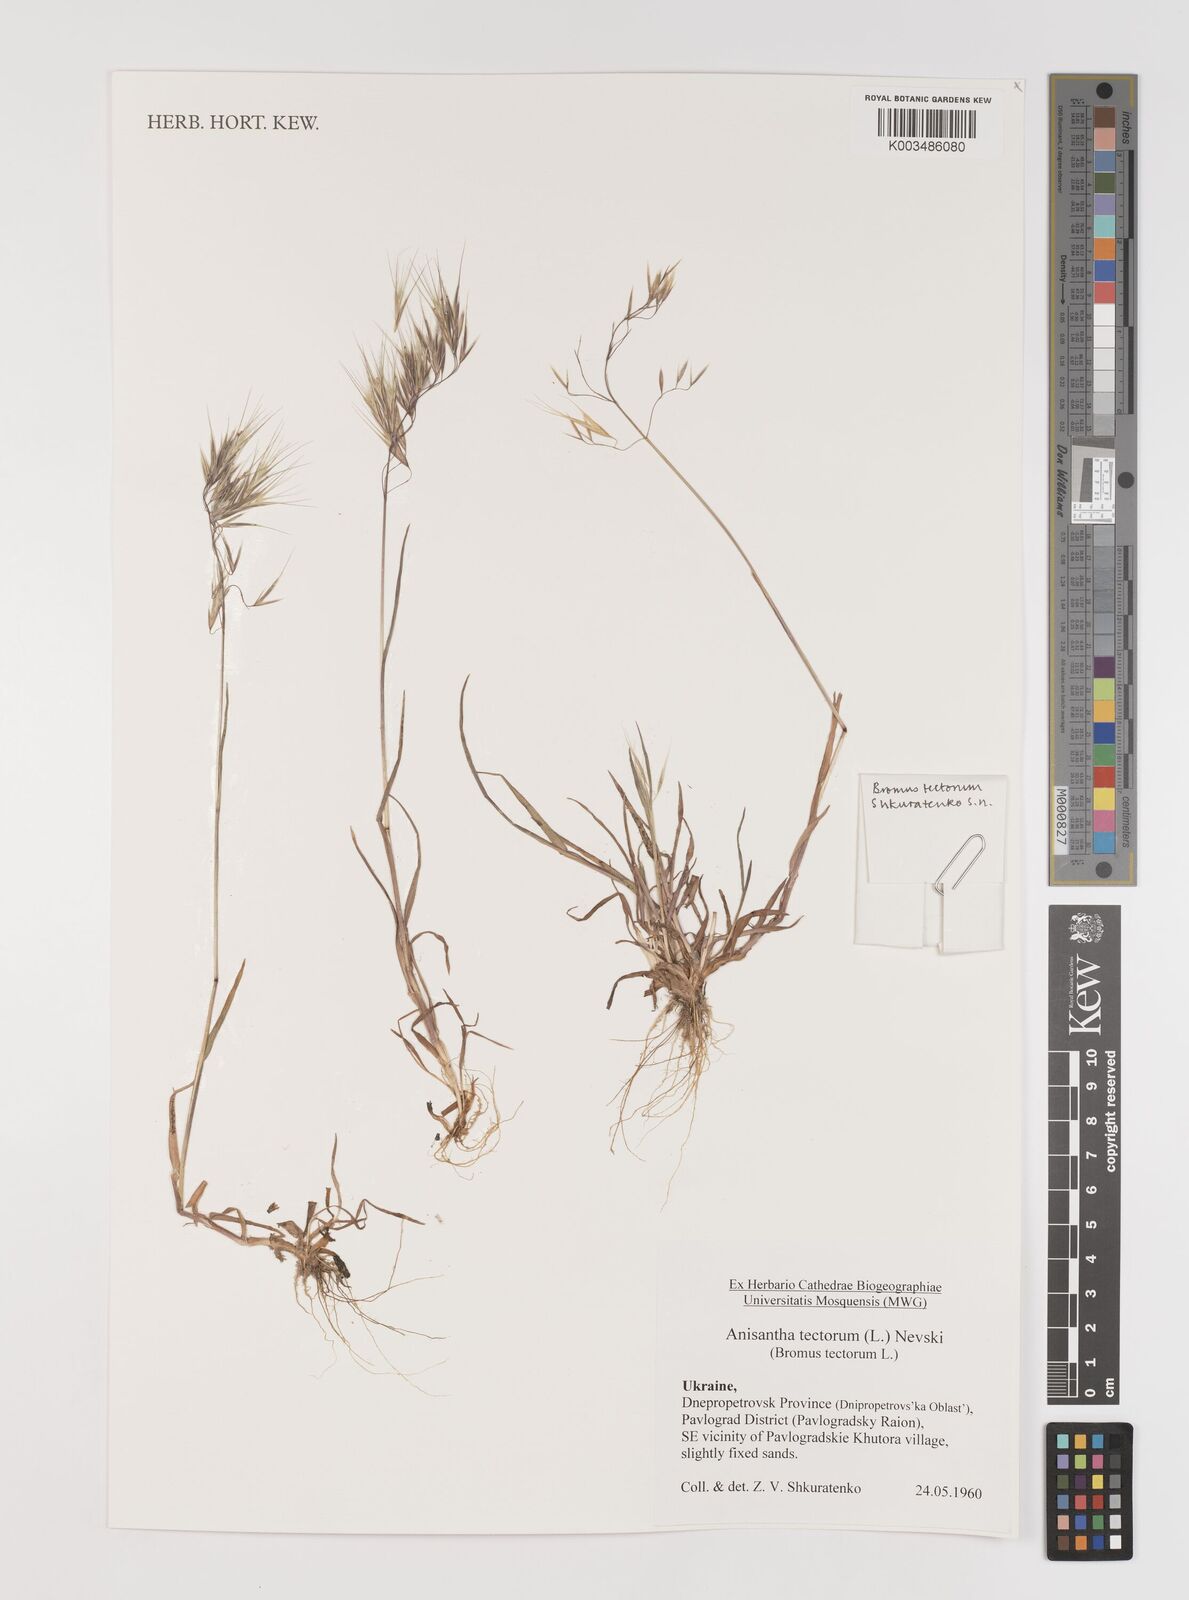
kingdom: Plantae
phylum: Tracheophyta
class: Liliopsida
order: Poales
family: Poaceae
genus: Bromus
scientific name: Bromus tectorum
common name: Cheatgrass
